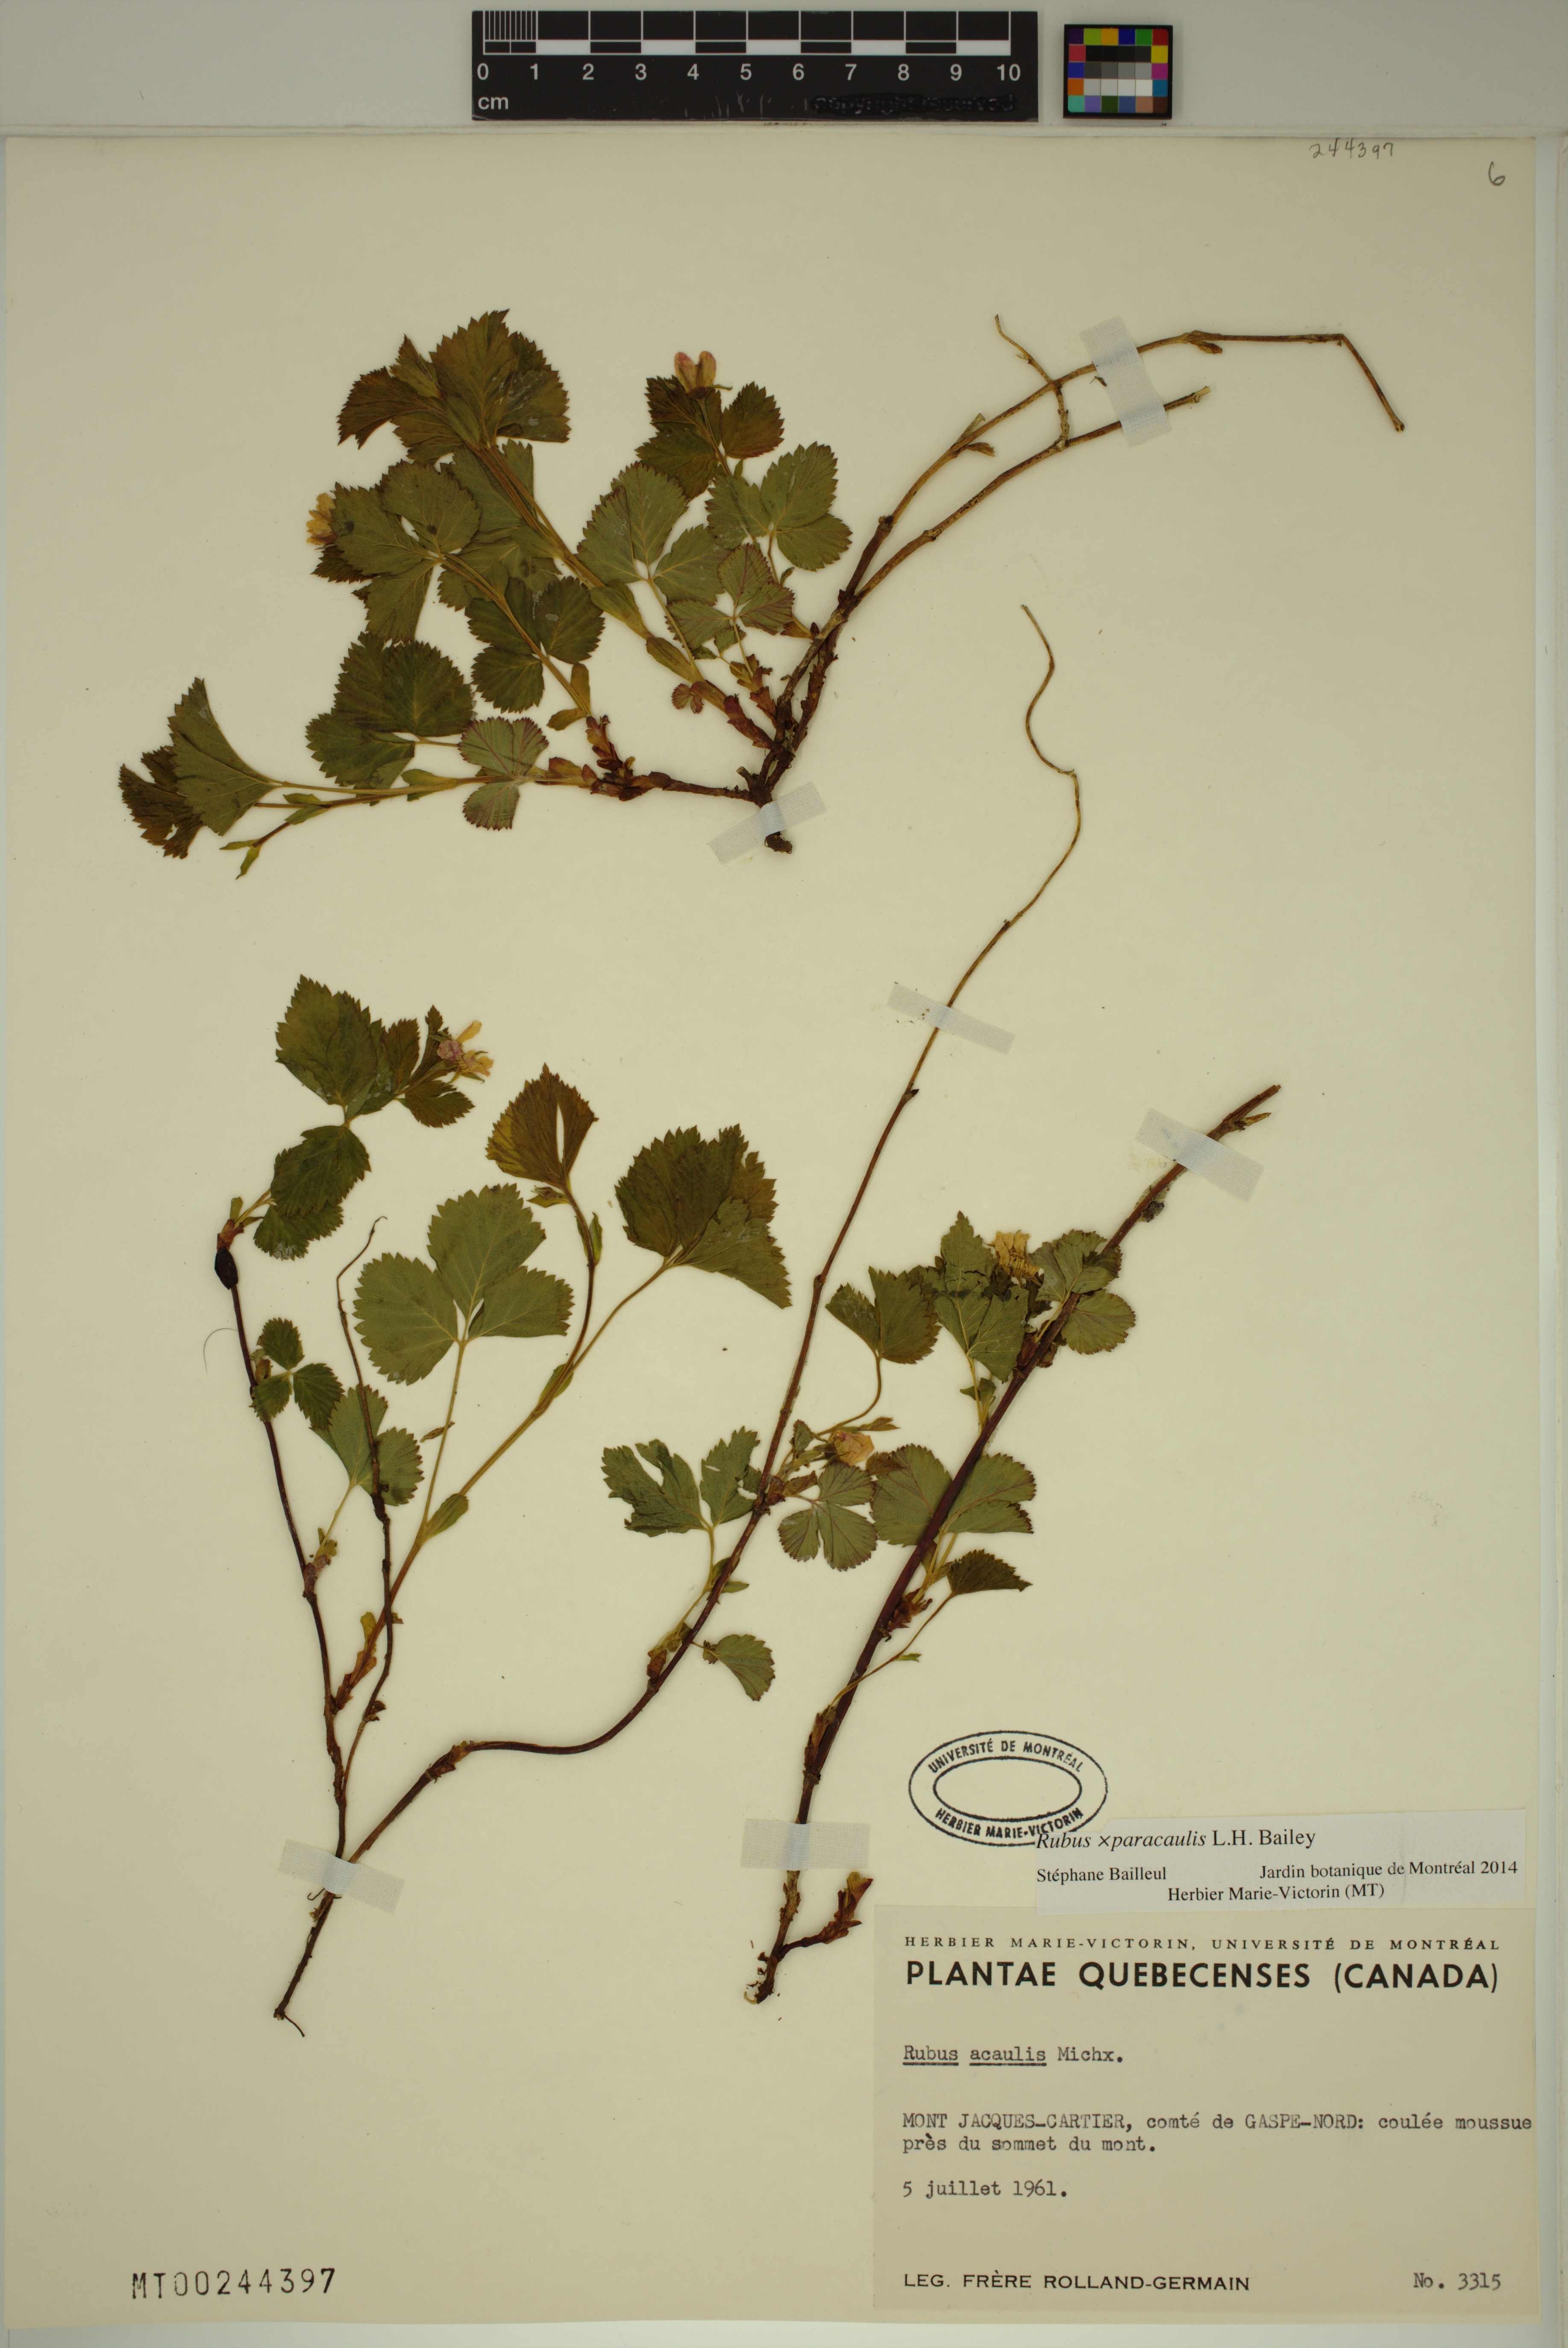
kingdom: Plantae
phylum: Tracheophyta
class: Magnoliopsida
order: Rosales
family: Rosaceae
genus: Rubus
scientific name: Rubus paracaulis
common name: Dwarf white-flowered raspberry
